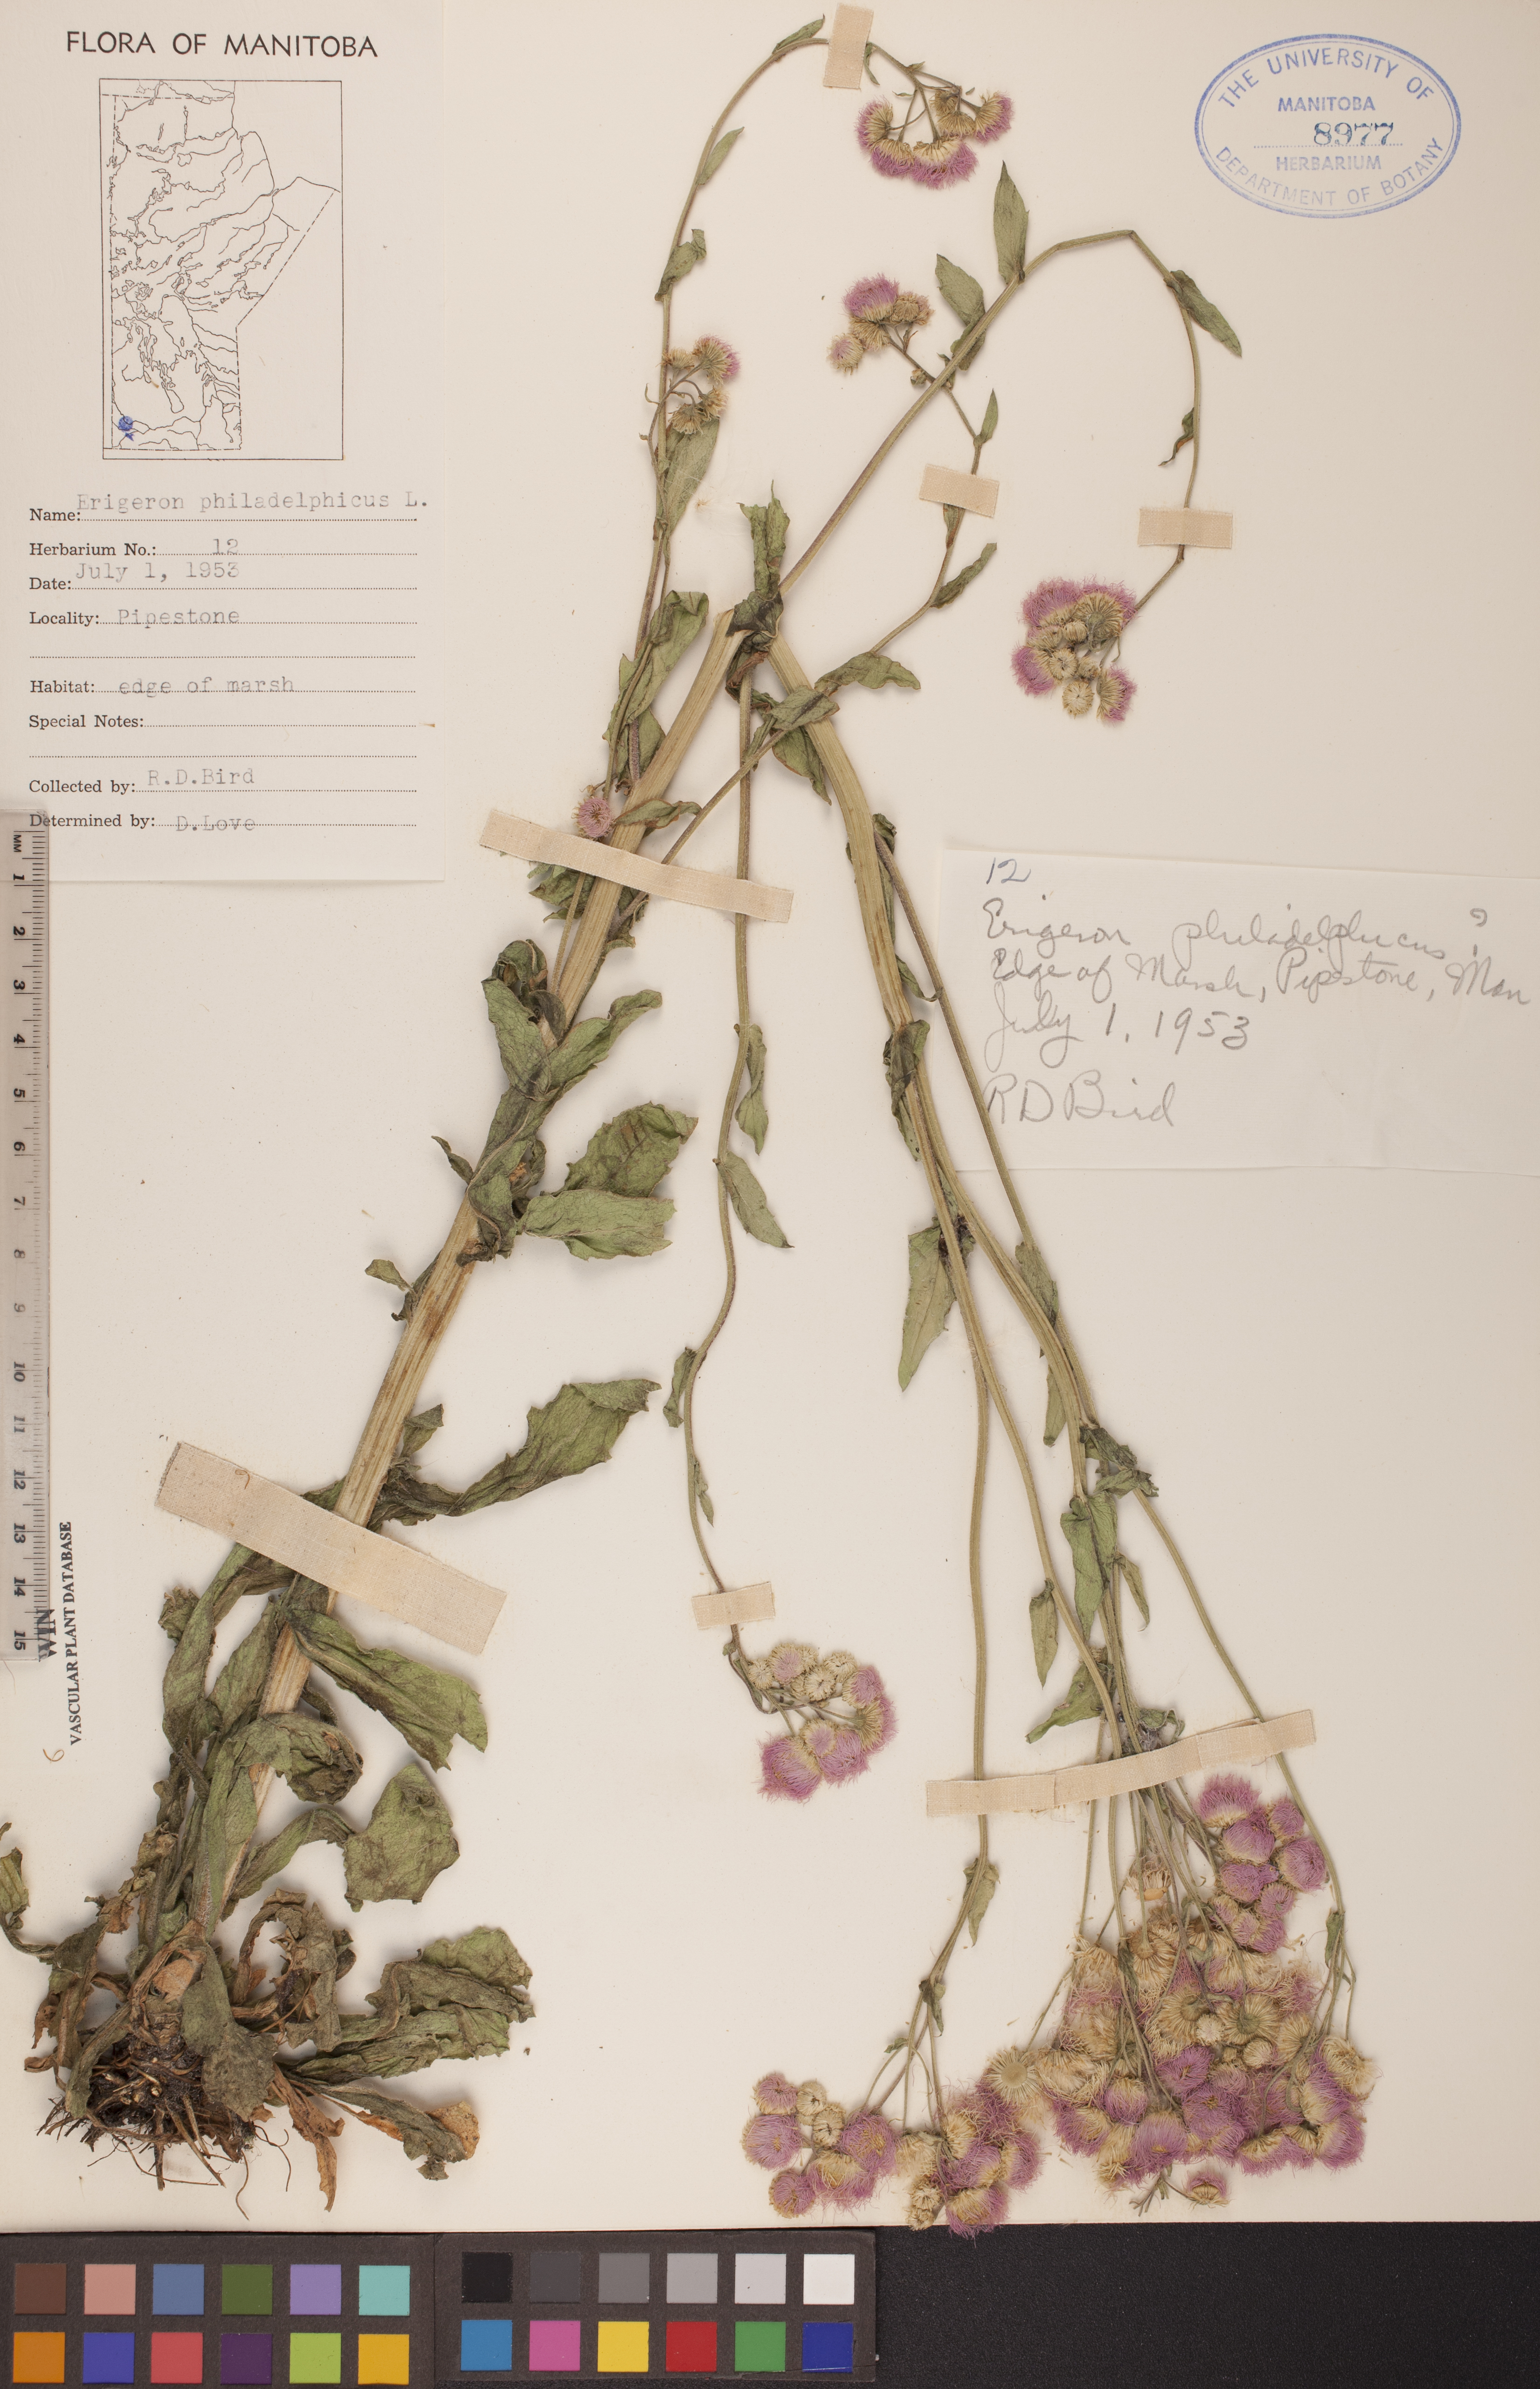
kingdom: Plantae
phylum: Tracheophyta
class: Magnoliopsida
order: Asterales
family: Asteraceae
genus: Erigeron
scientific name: Erigeron philadelphicus
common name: Robin's-plantain
